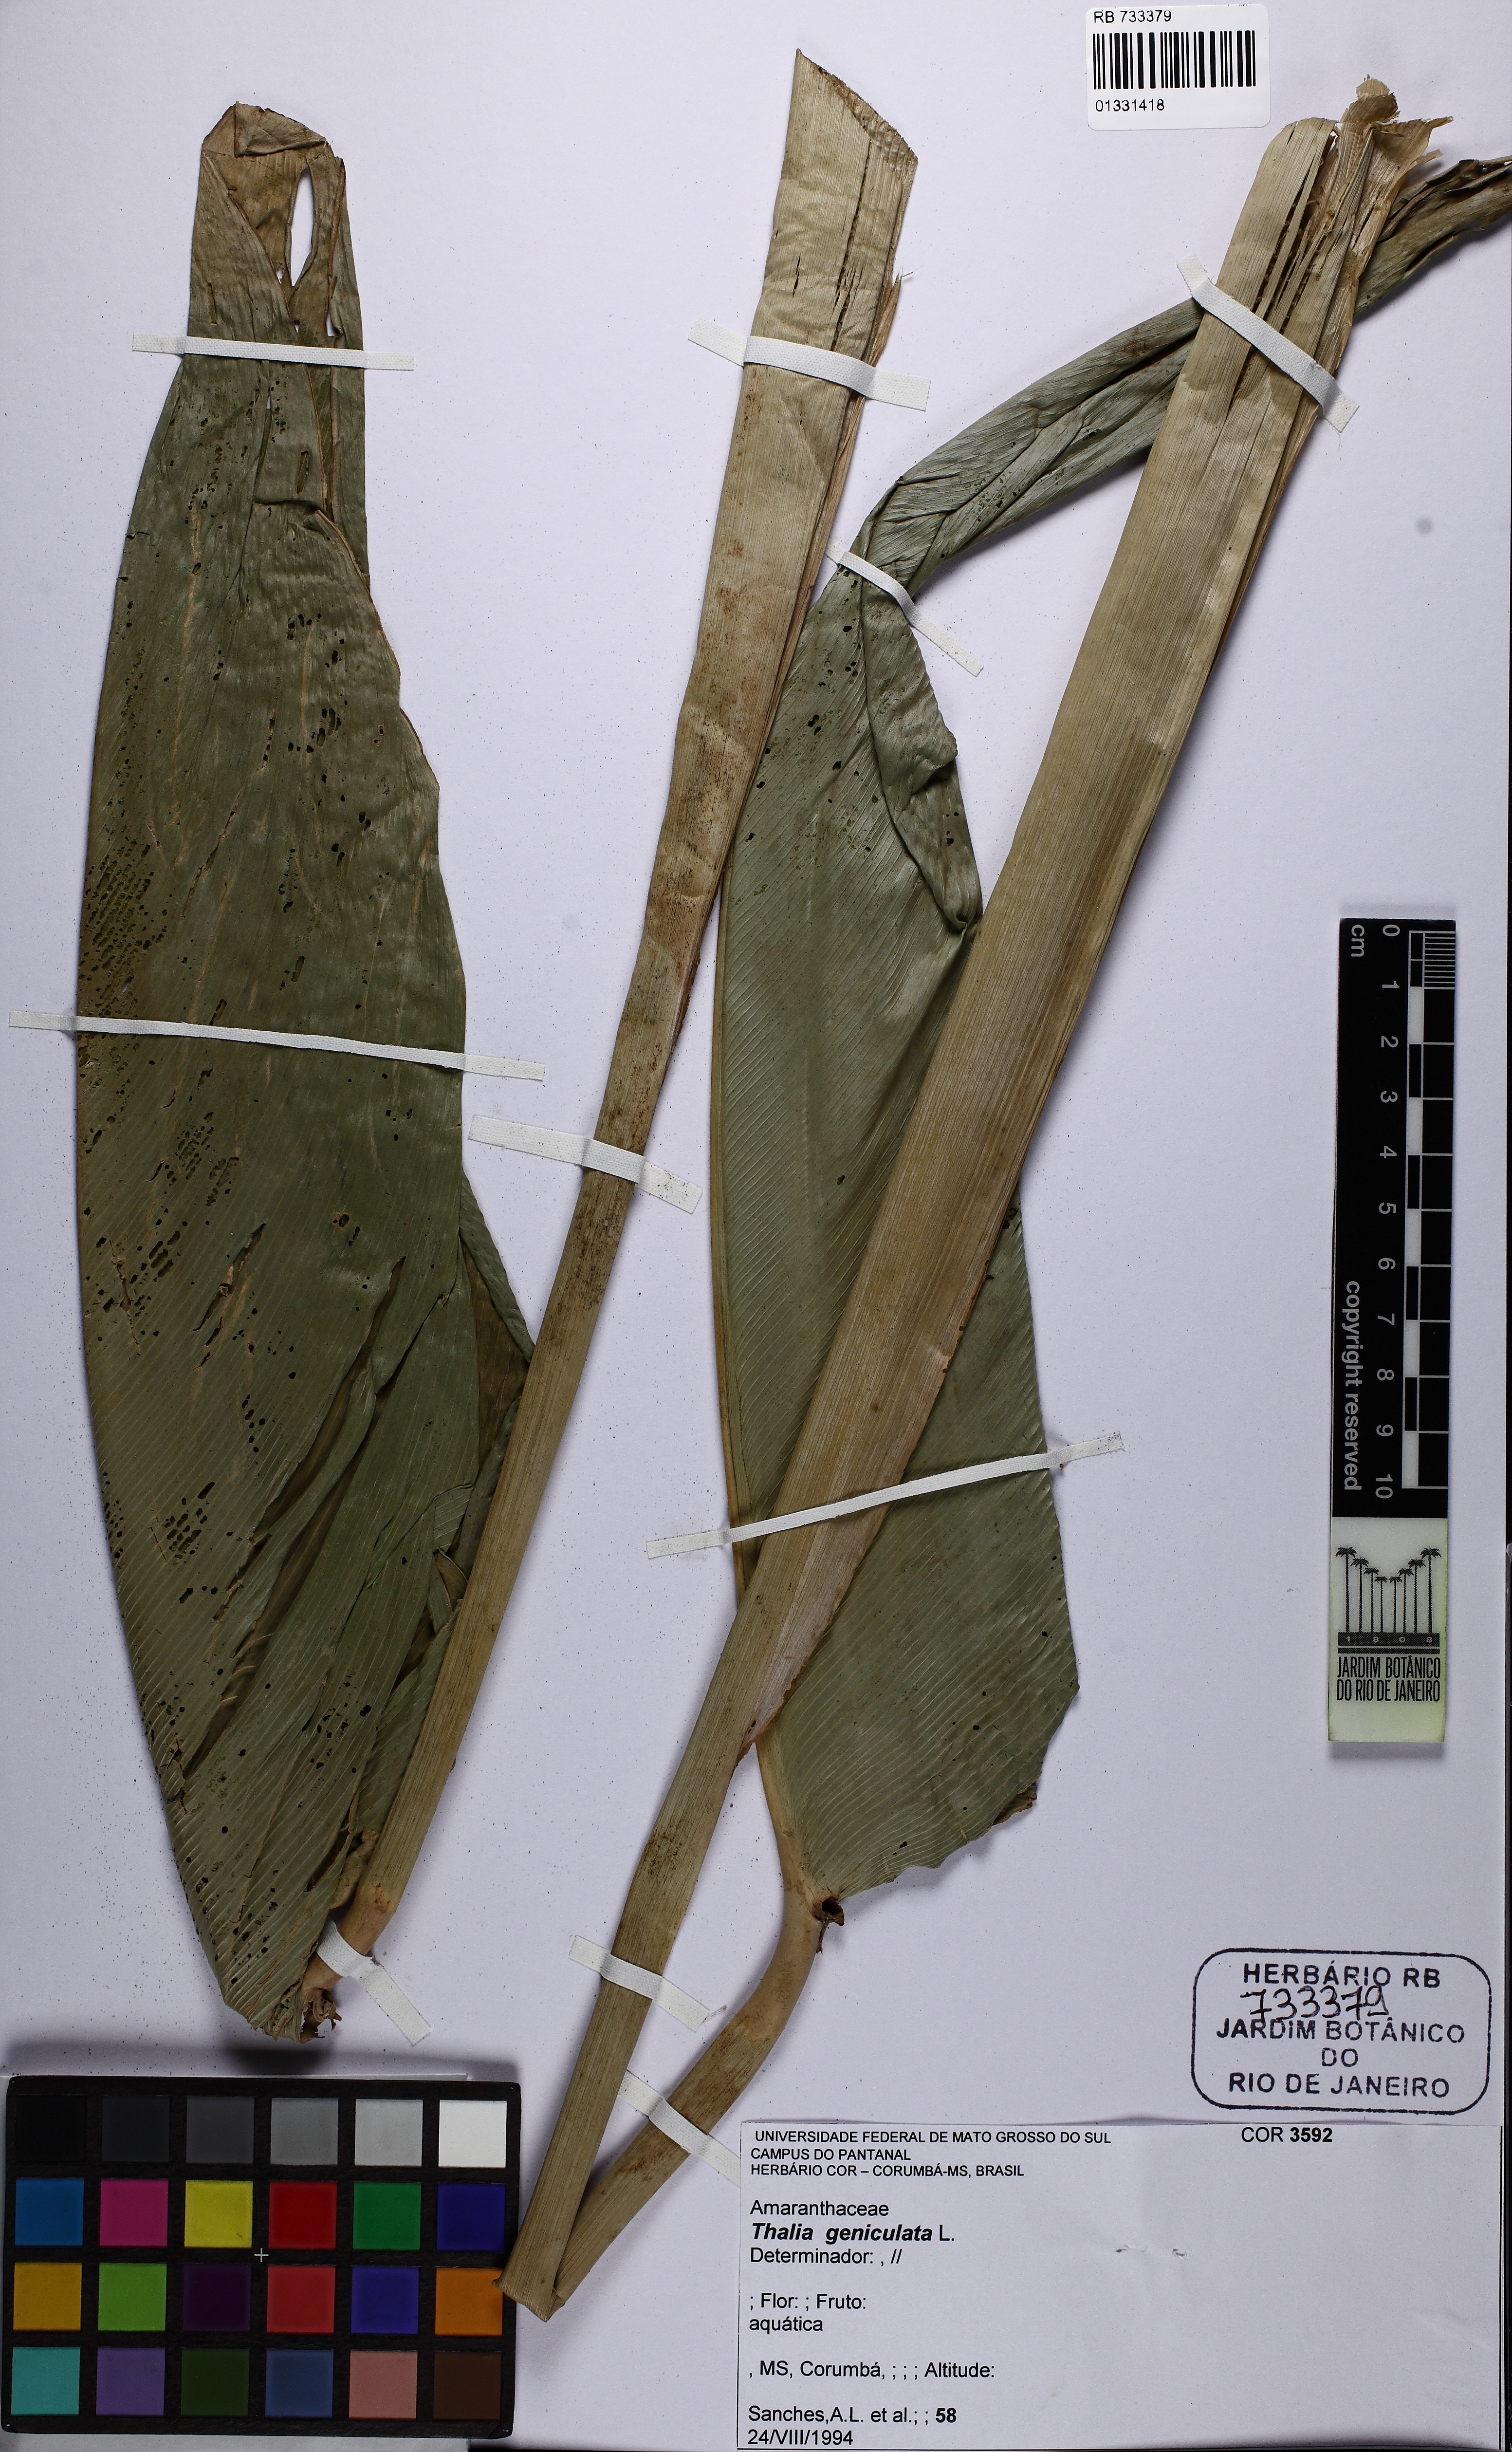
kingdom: Plantae
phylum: Tracheophyta
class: Liliopsida
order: Zingiberales
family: Marantaceae
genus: Thalia
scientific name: Thalia geniculata
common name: Arrowroot
